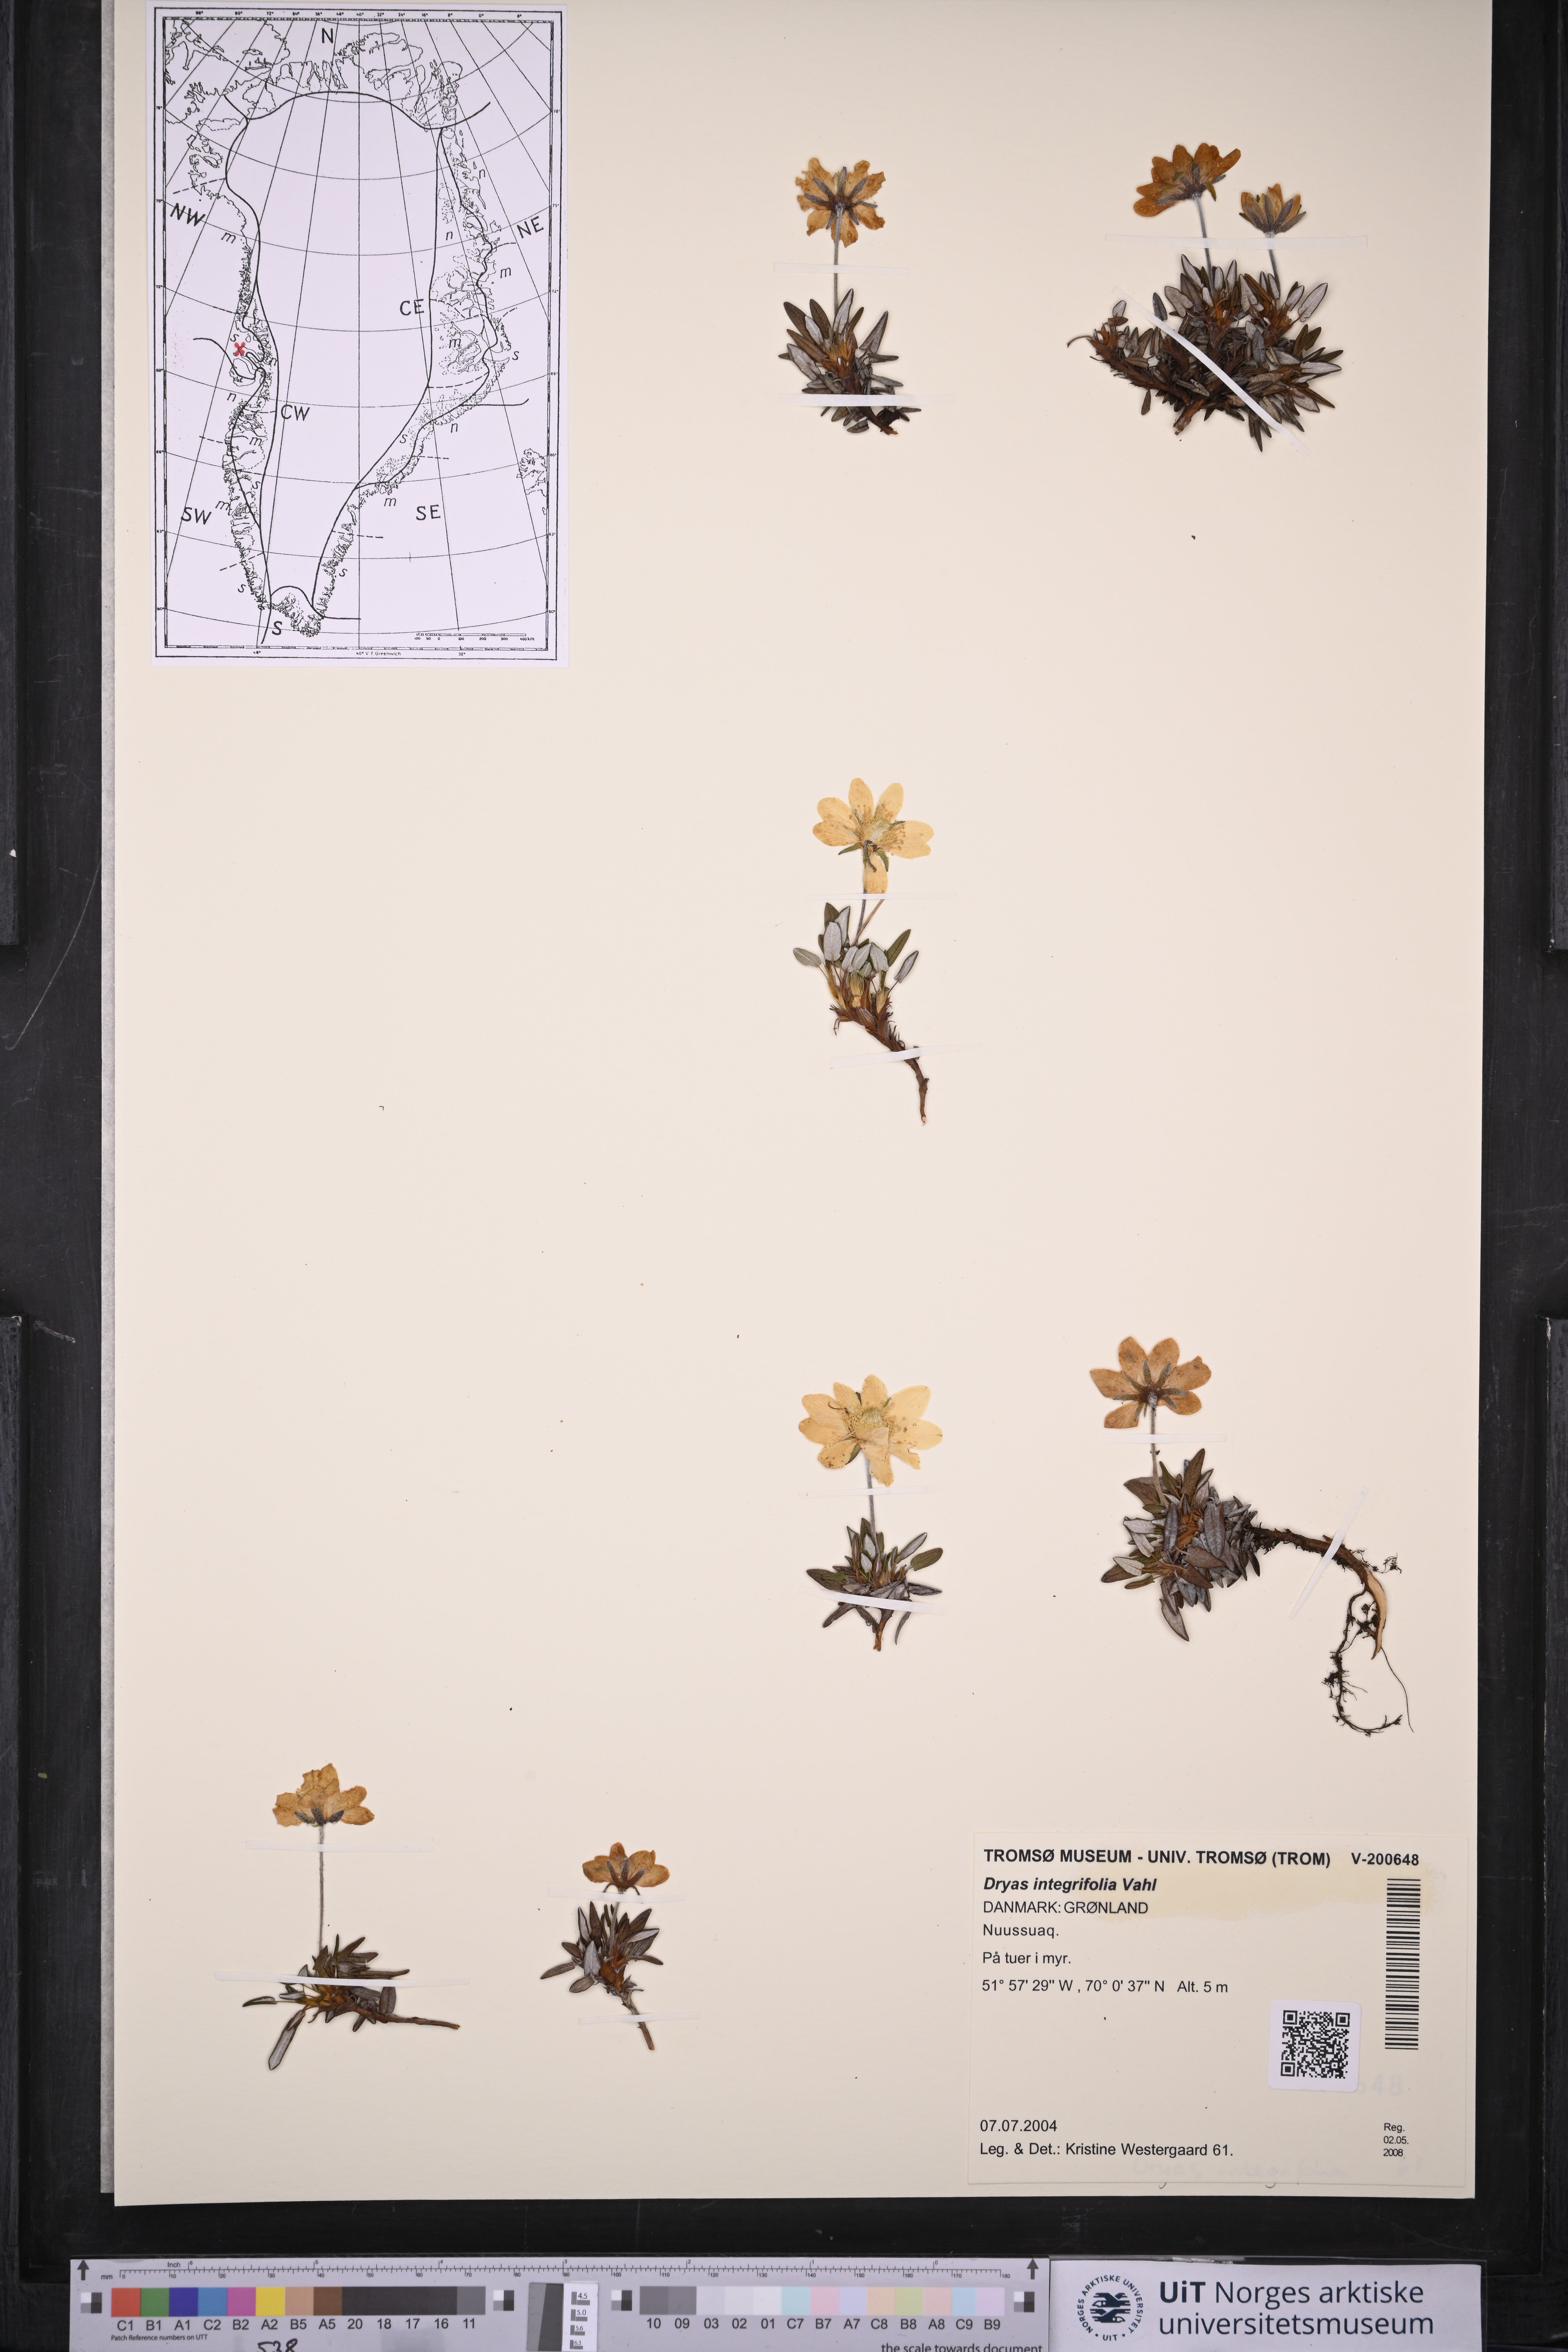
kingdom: Plantae
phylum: Tracheophyta
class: Magnoliopsida
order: Rosales
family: Rosaceae
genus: Dryas
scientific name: Dryas integrifolia
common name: Entire-leaved mountain avens
